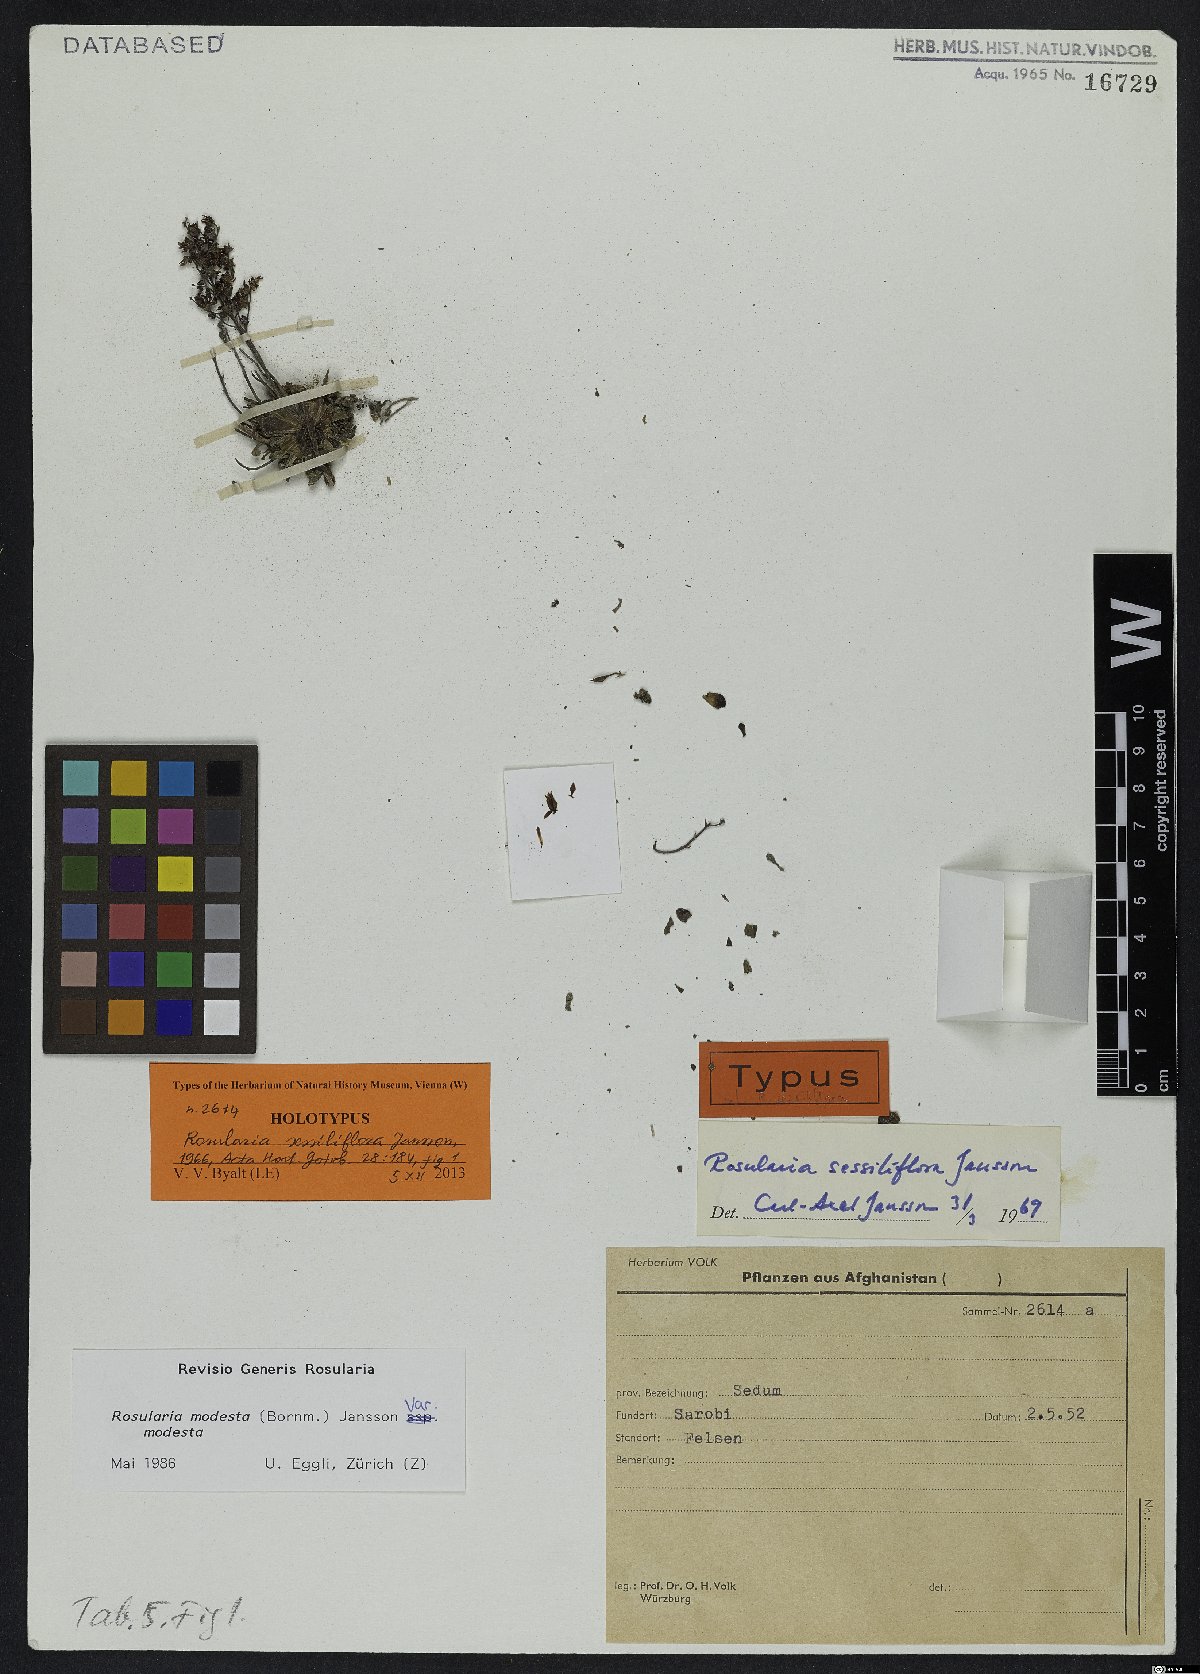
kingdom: Plantae
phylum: Tracheophyta
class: Magnoliopsida
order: Saxifragales
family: Crassulaceae
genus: Rosularia
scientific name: Rosularia modesta
